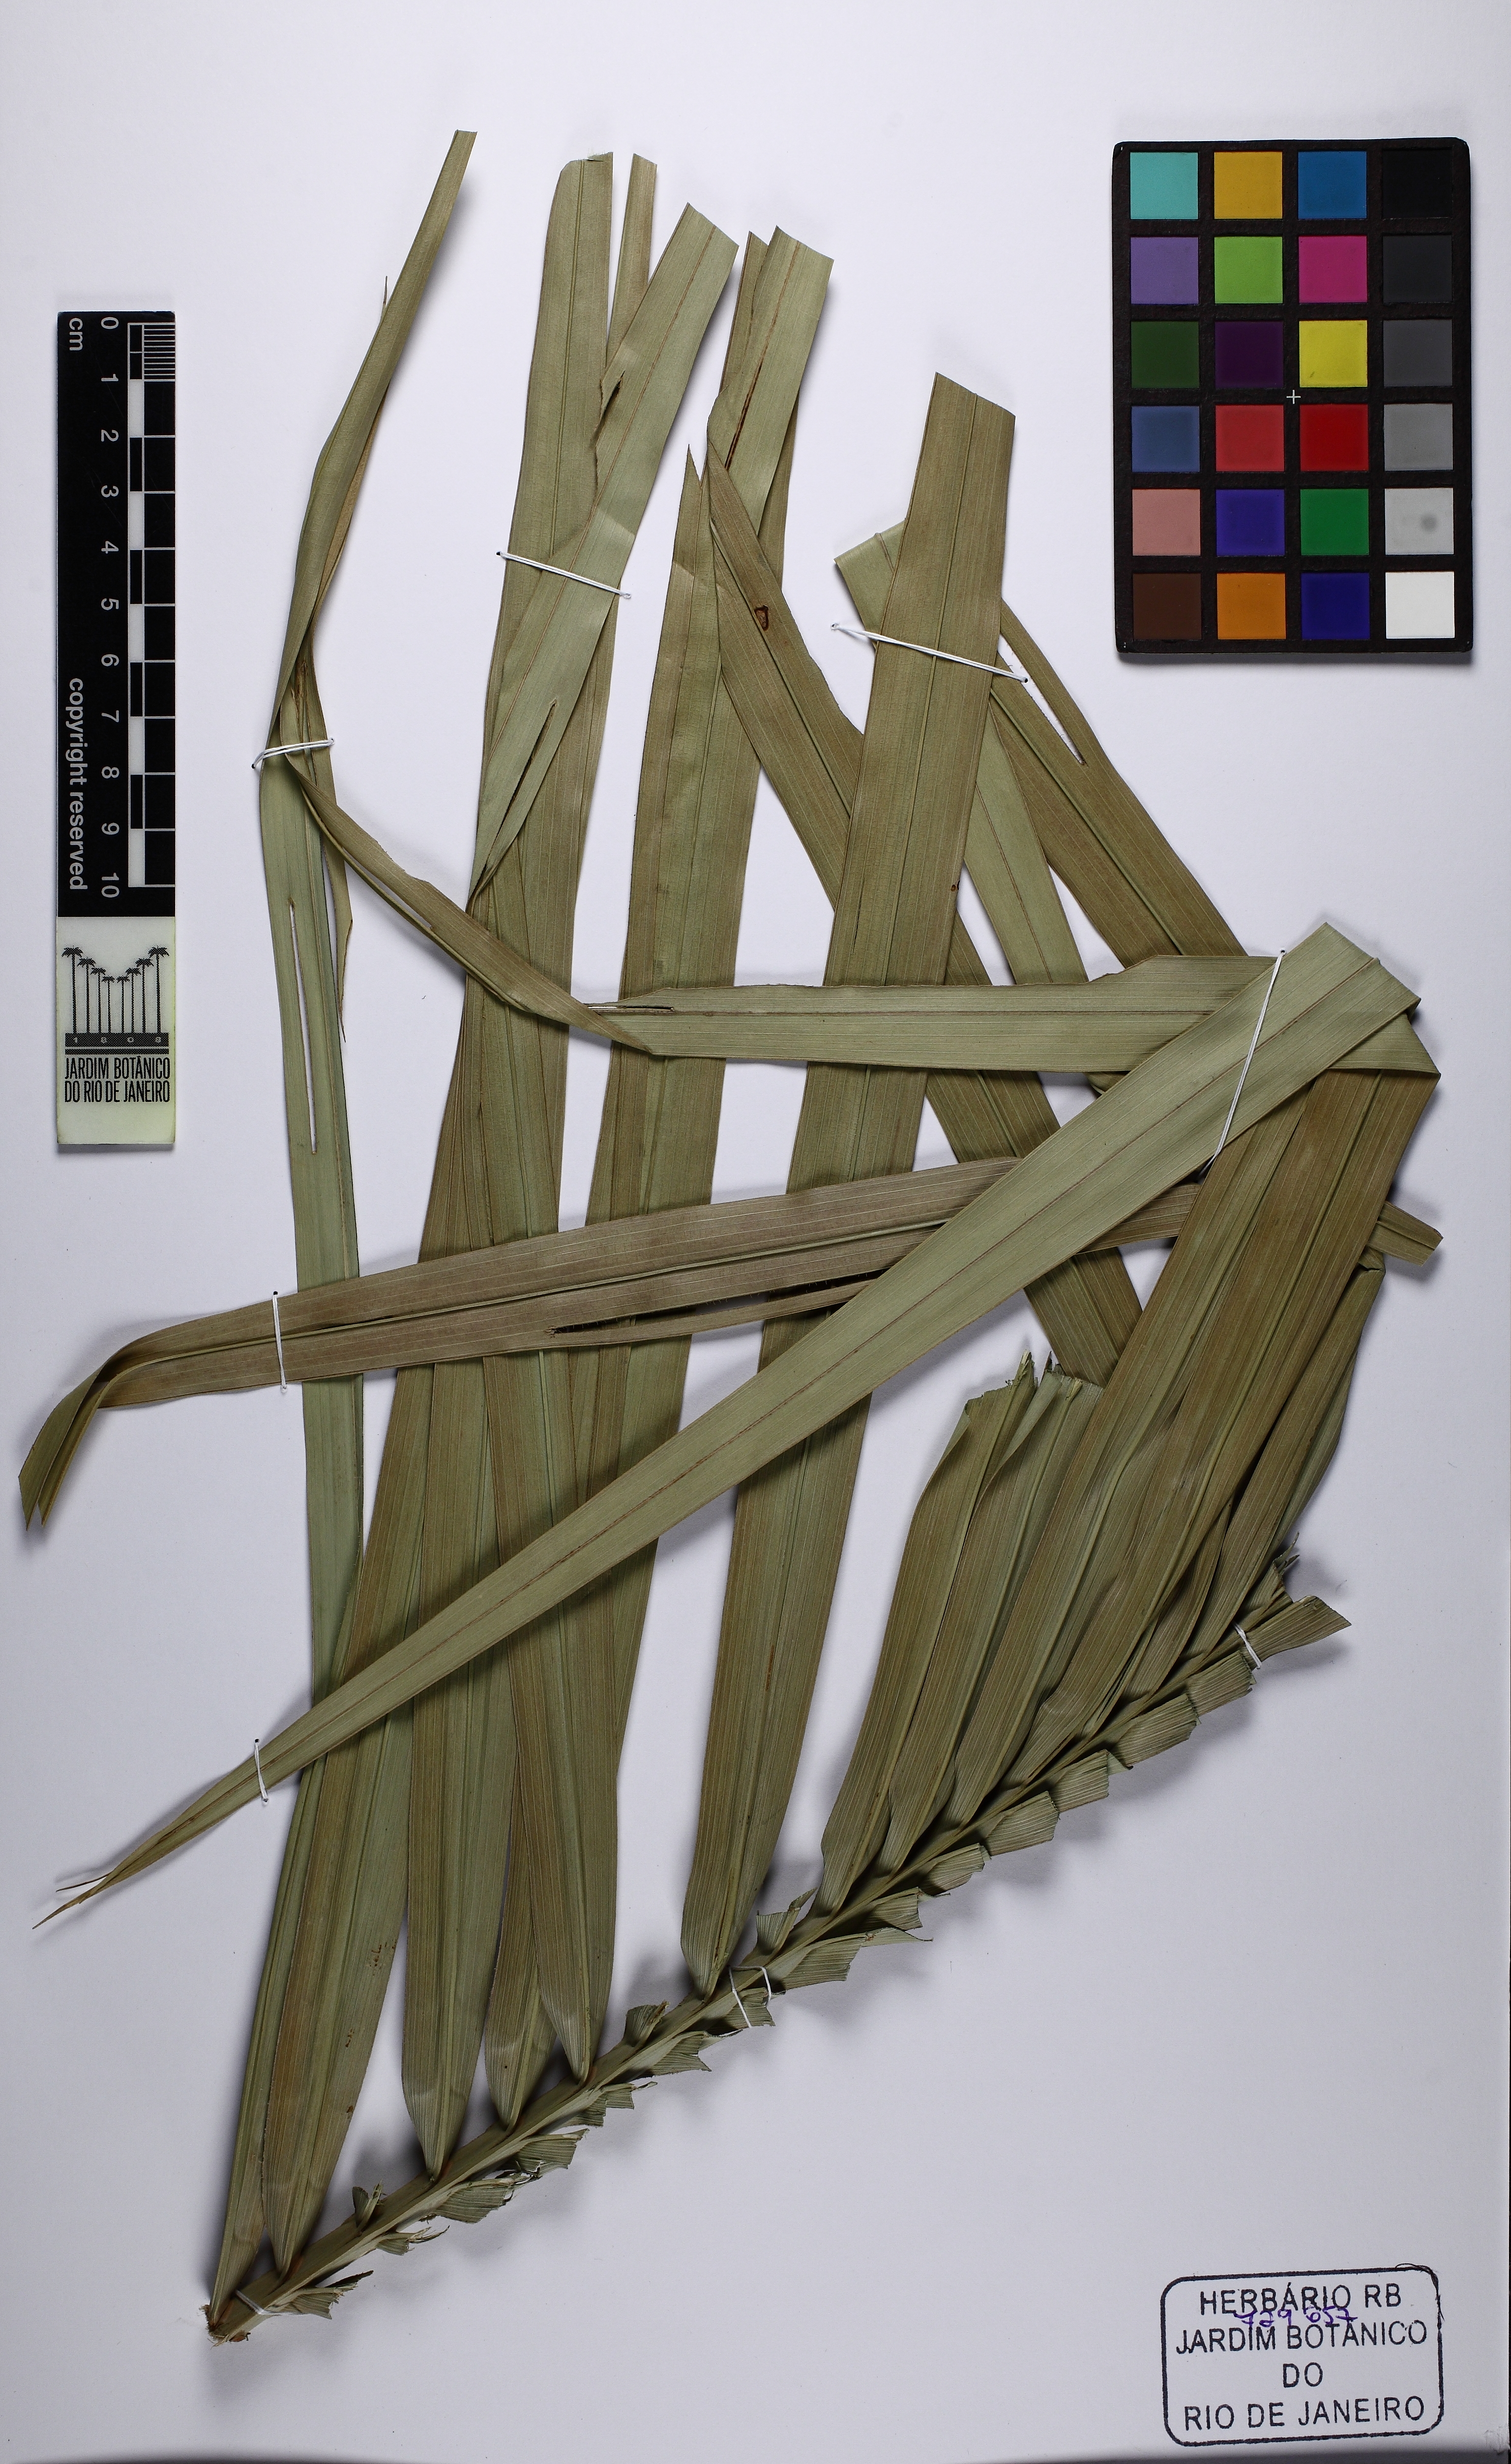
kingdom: Plantae
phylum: Tracheophyta
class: Liliopsida
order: Arecales
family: Arecaceae
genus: Attalea
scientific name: Attalea geraensis
